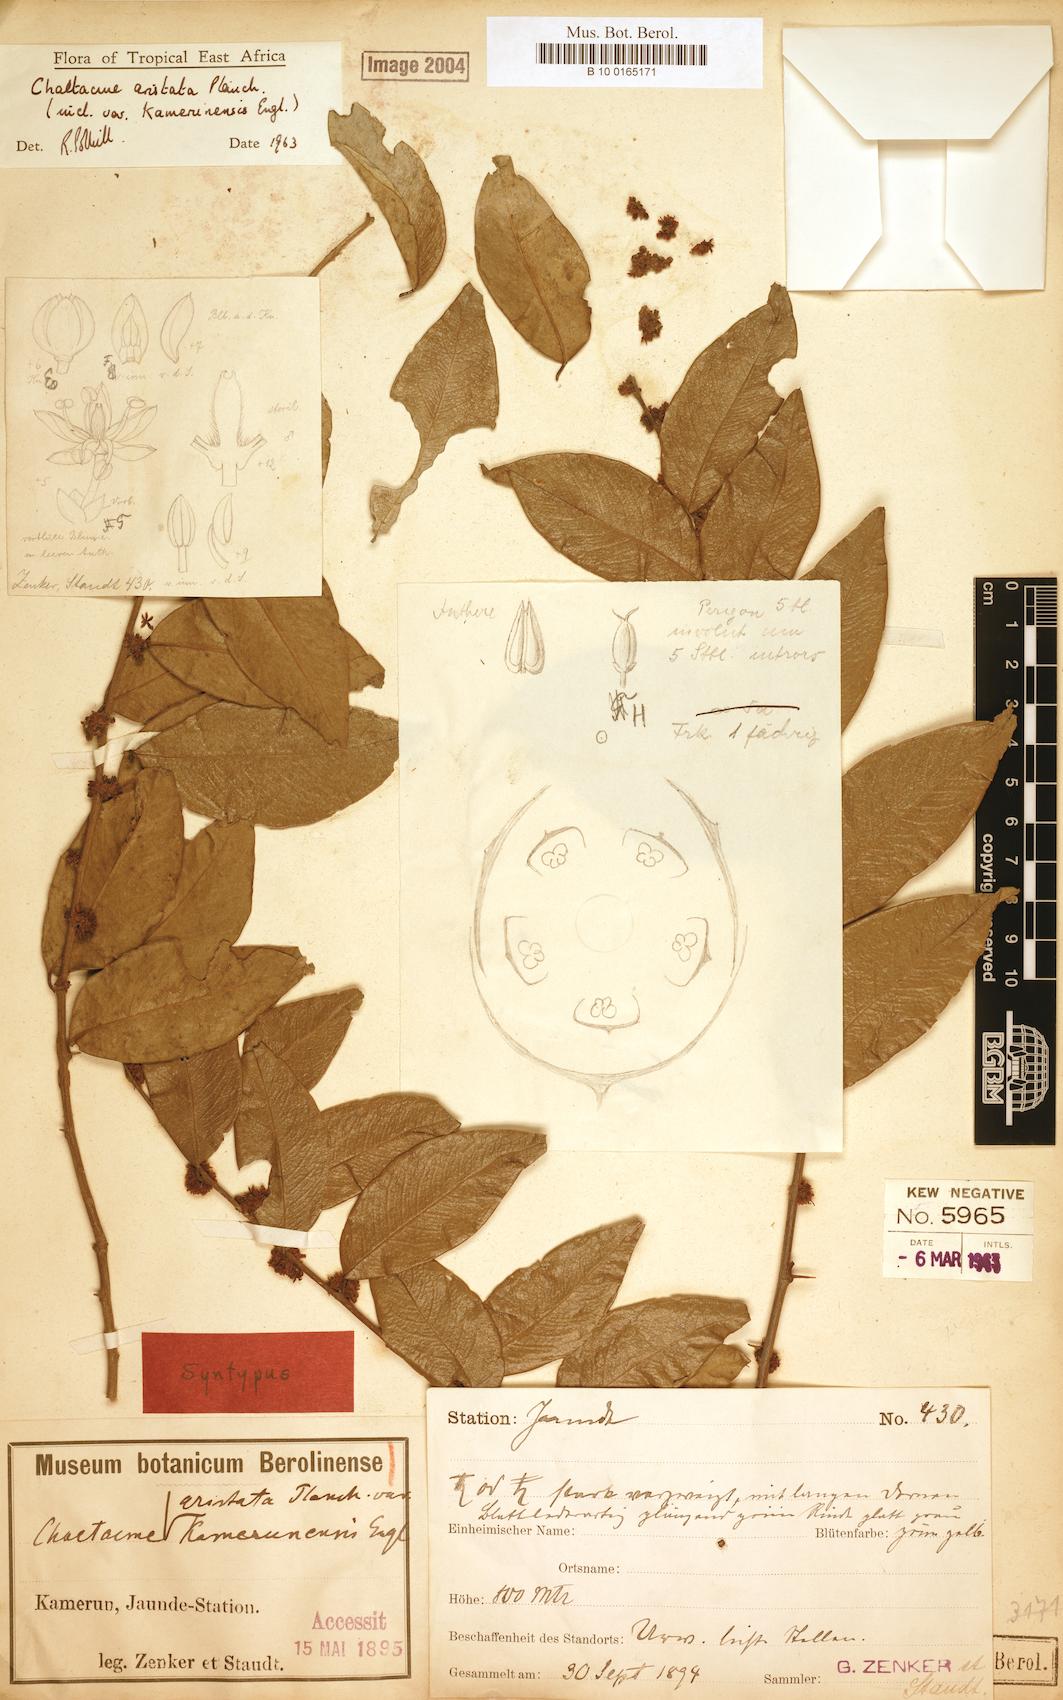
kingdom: Plantae
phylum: Tracheophyta
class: Magnoliopsida
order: Rosales
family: Cannabaceae
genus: Chaetachme
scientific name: Chaetachme aristata
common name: Thorny elm
